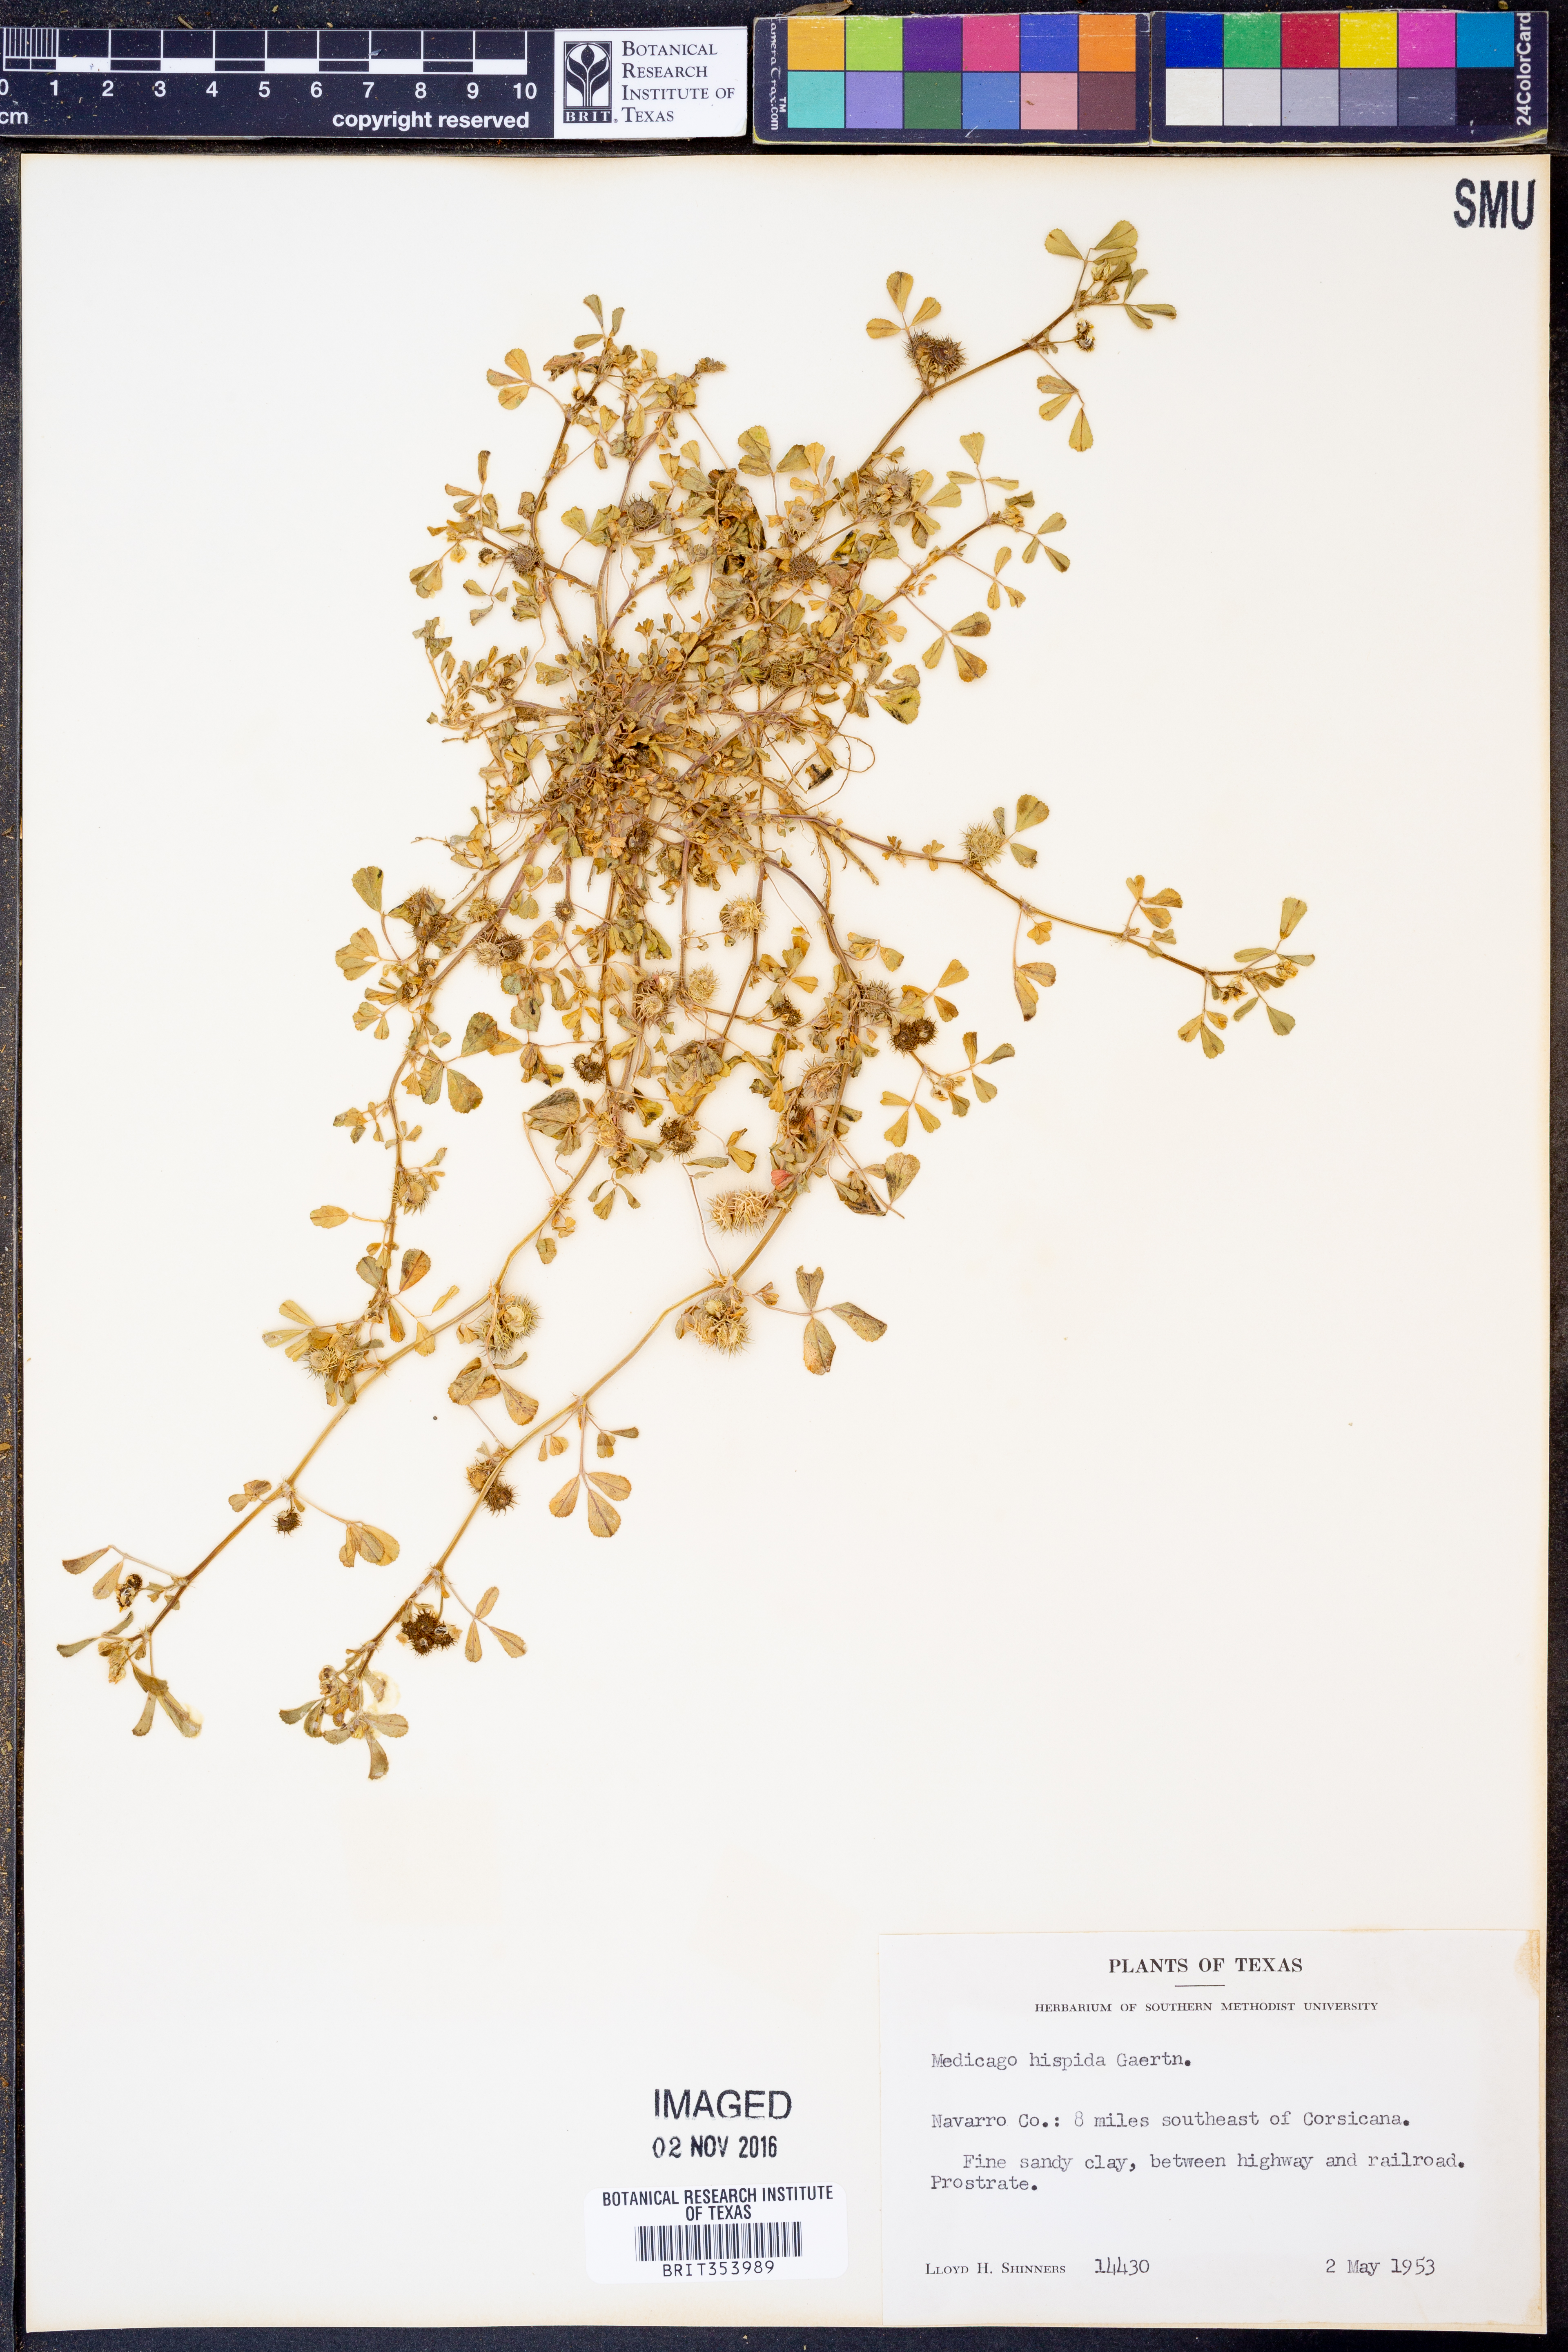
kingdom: Plantae
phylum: Tracheophyta
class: Magnoliopsida
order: Fabales
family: Fabaceae
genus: Medicago
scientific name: Medicago polymorpha
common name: Burclover
